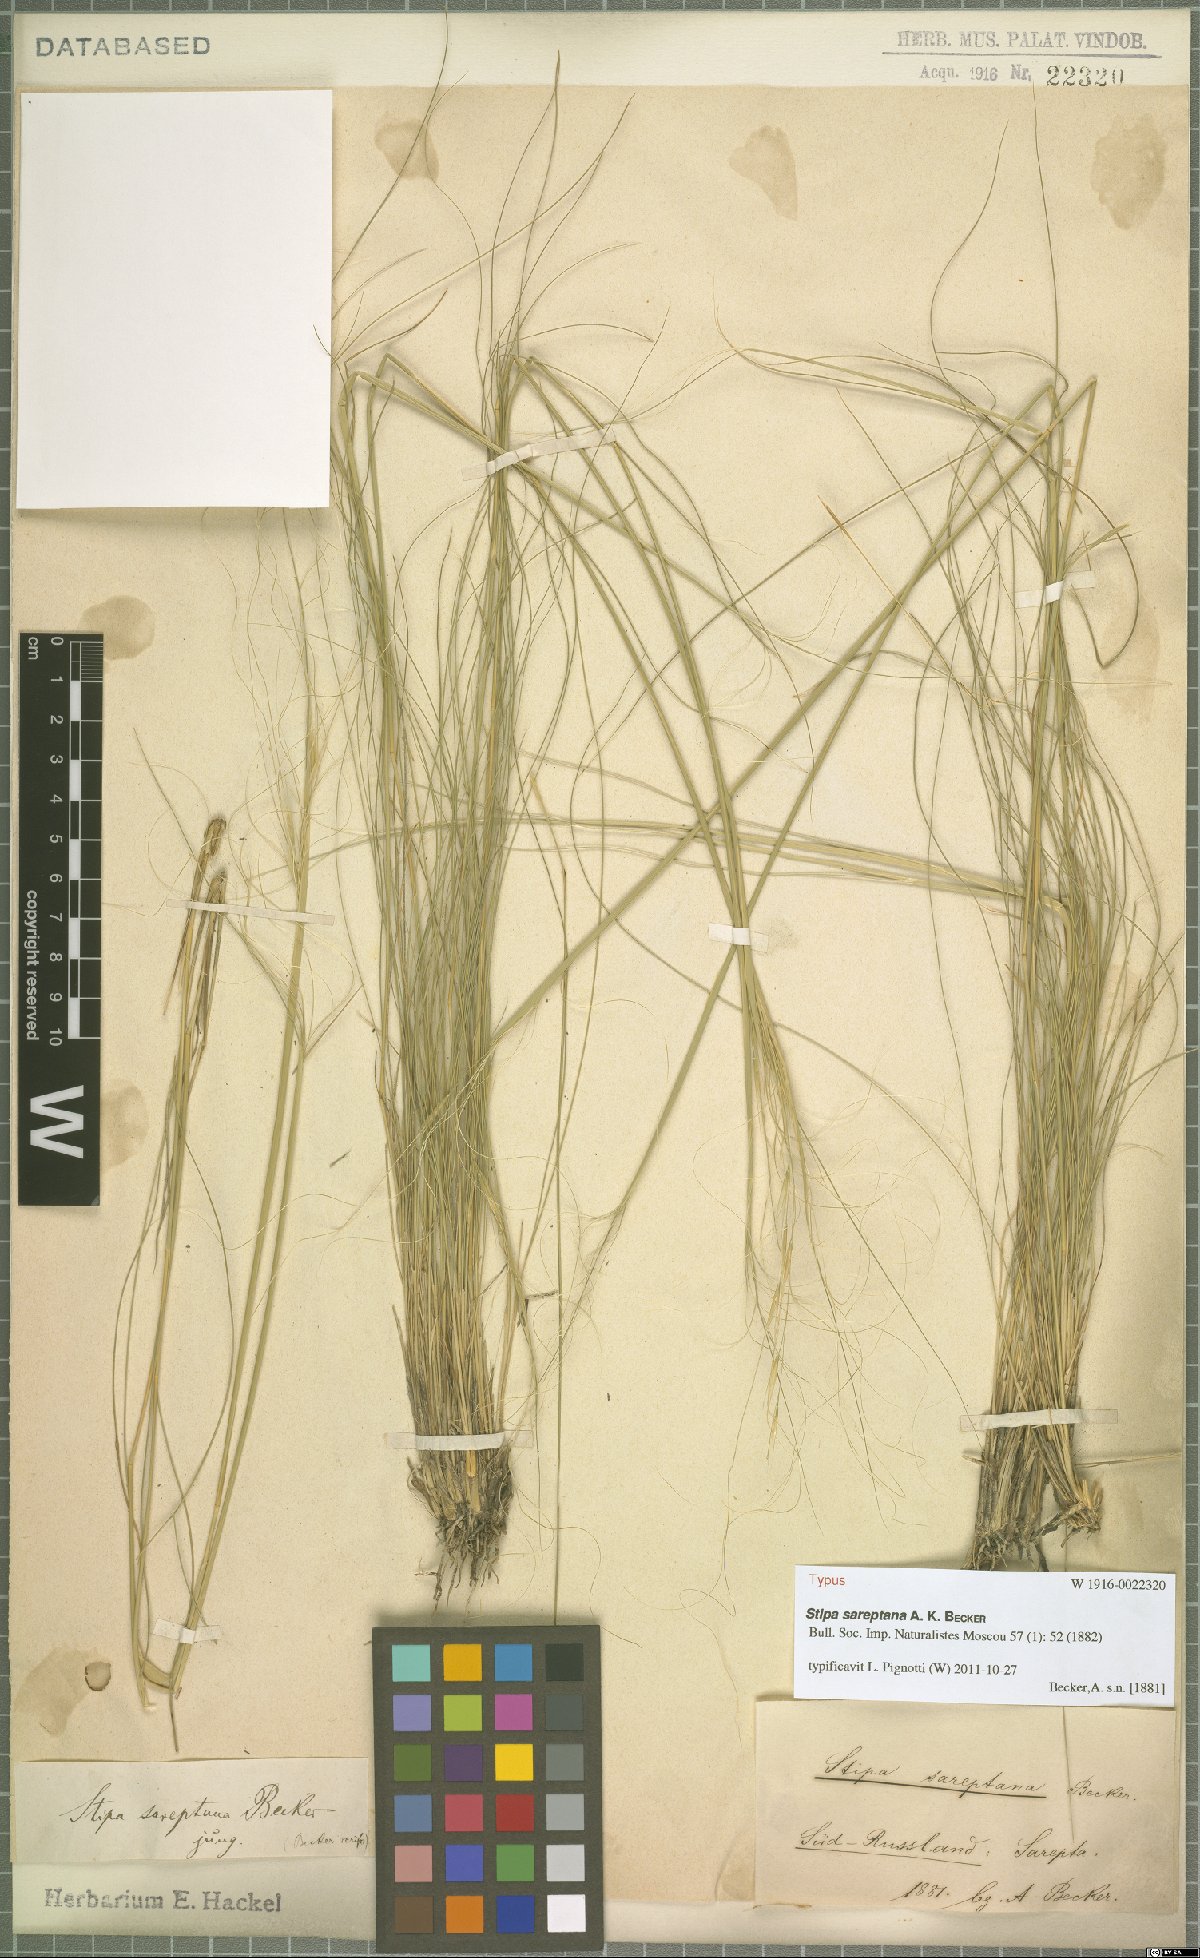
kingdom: Plantae
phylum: Tracheophyta
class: Liliopsida
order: Poales
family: Poaceae
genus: Stipa
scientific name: Stipa sareptana
